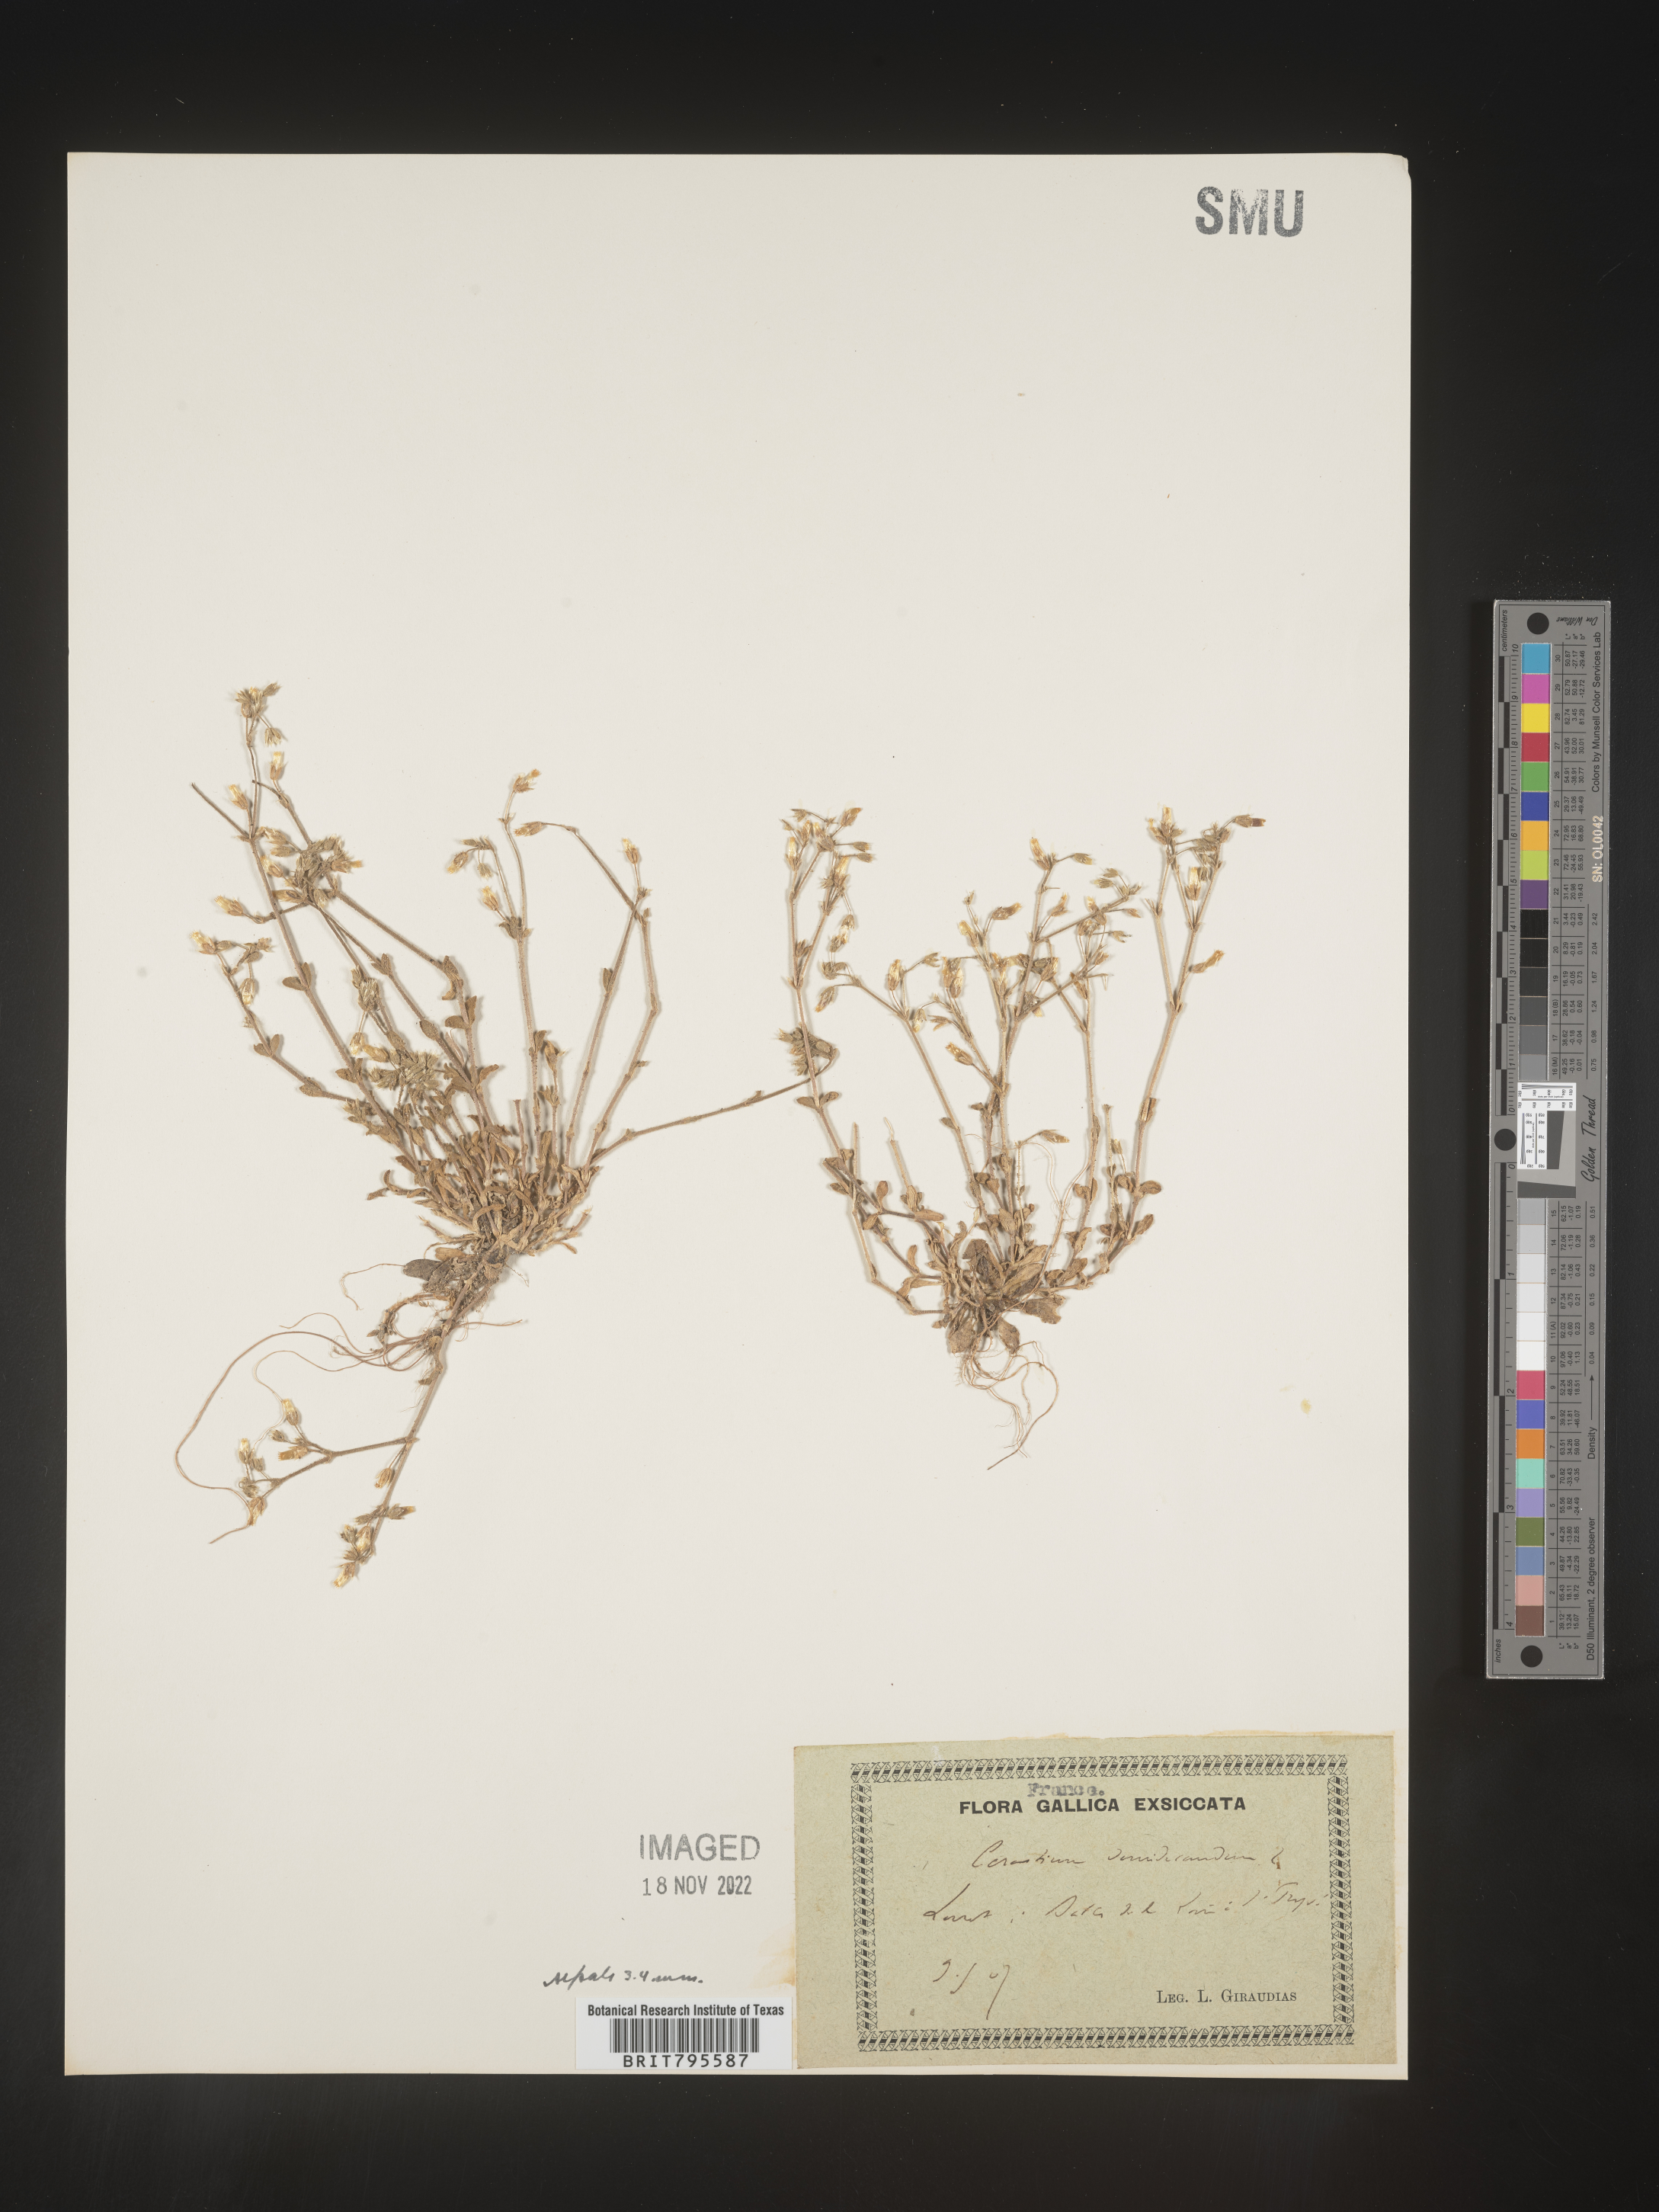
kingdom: Plantae
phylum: Tracheophyta
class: Magnoliopsida
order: Caryophyllales
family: Caryophyllaceae
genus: Cerastium
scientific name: Cerastium
